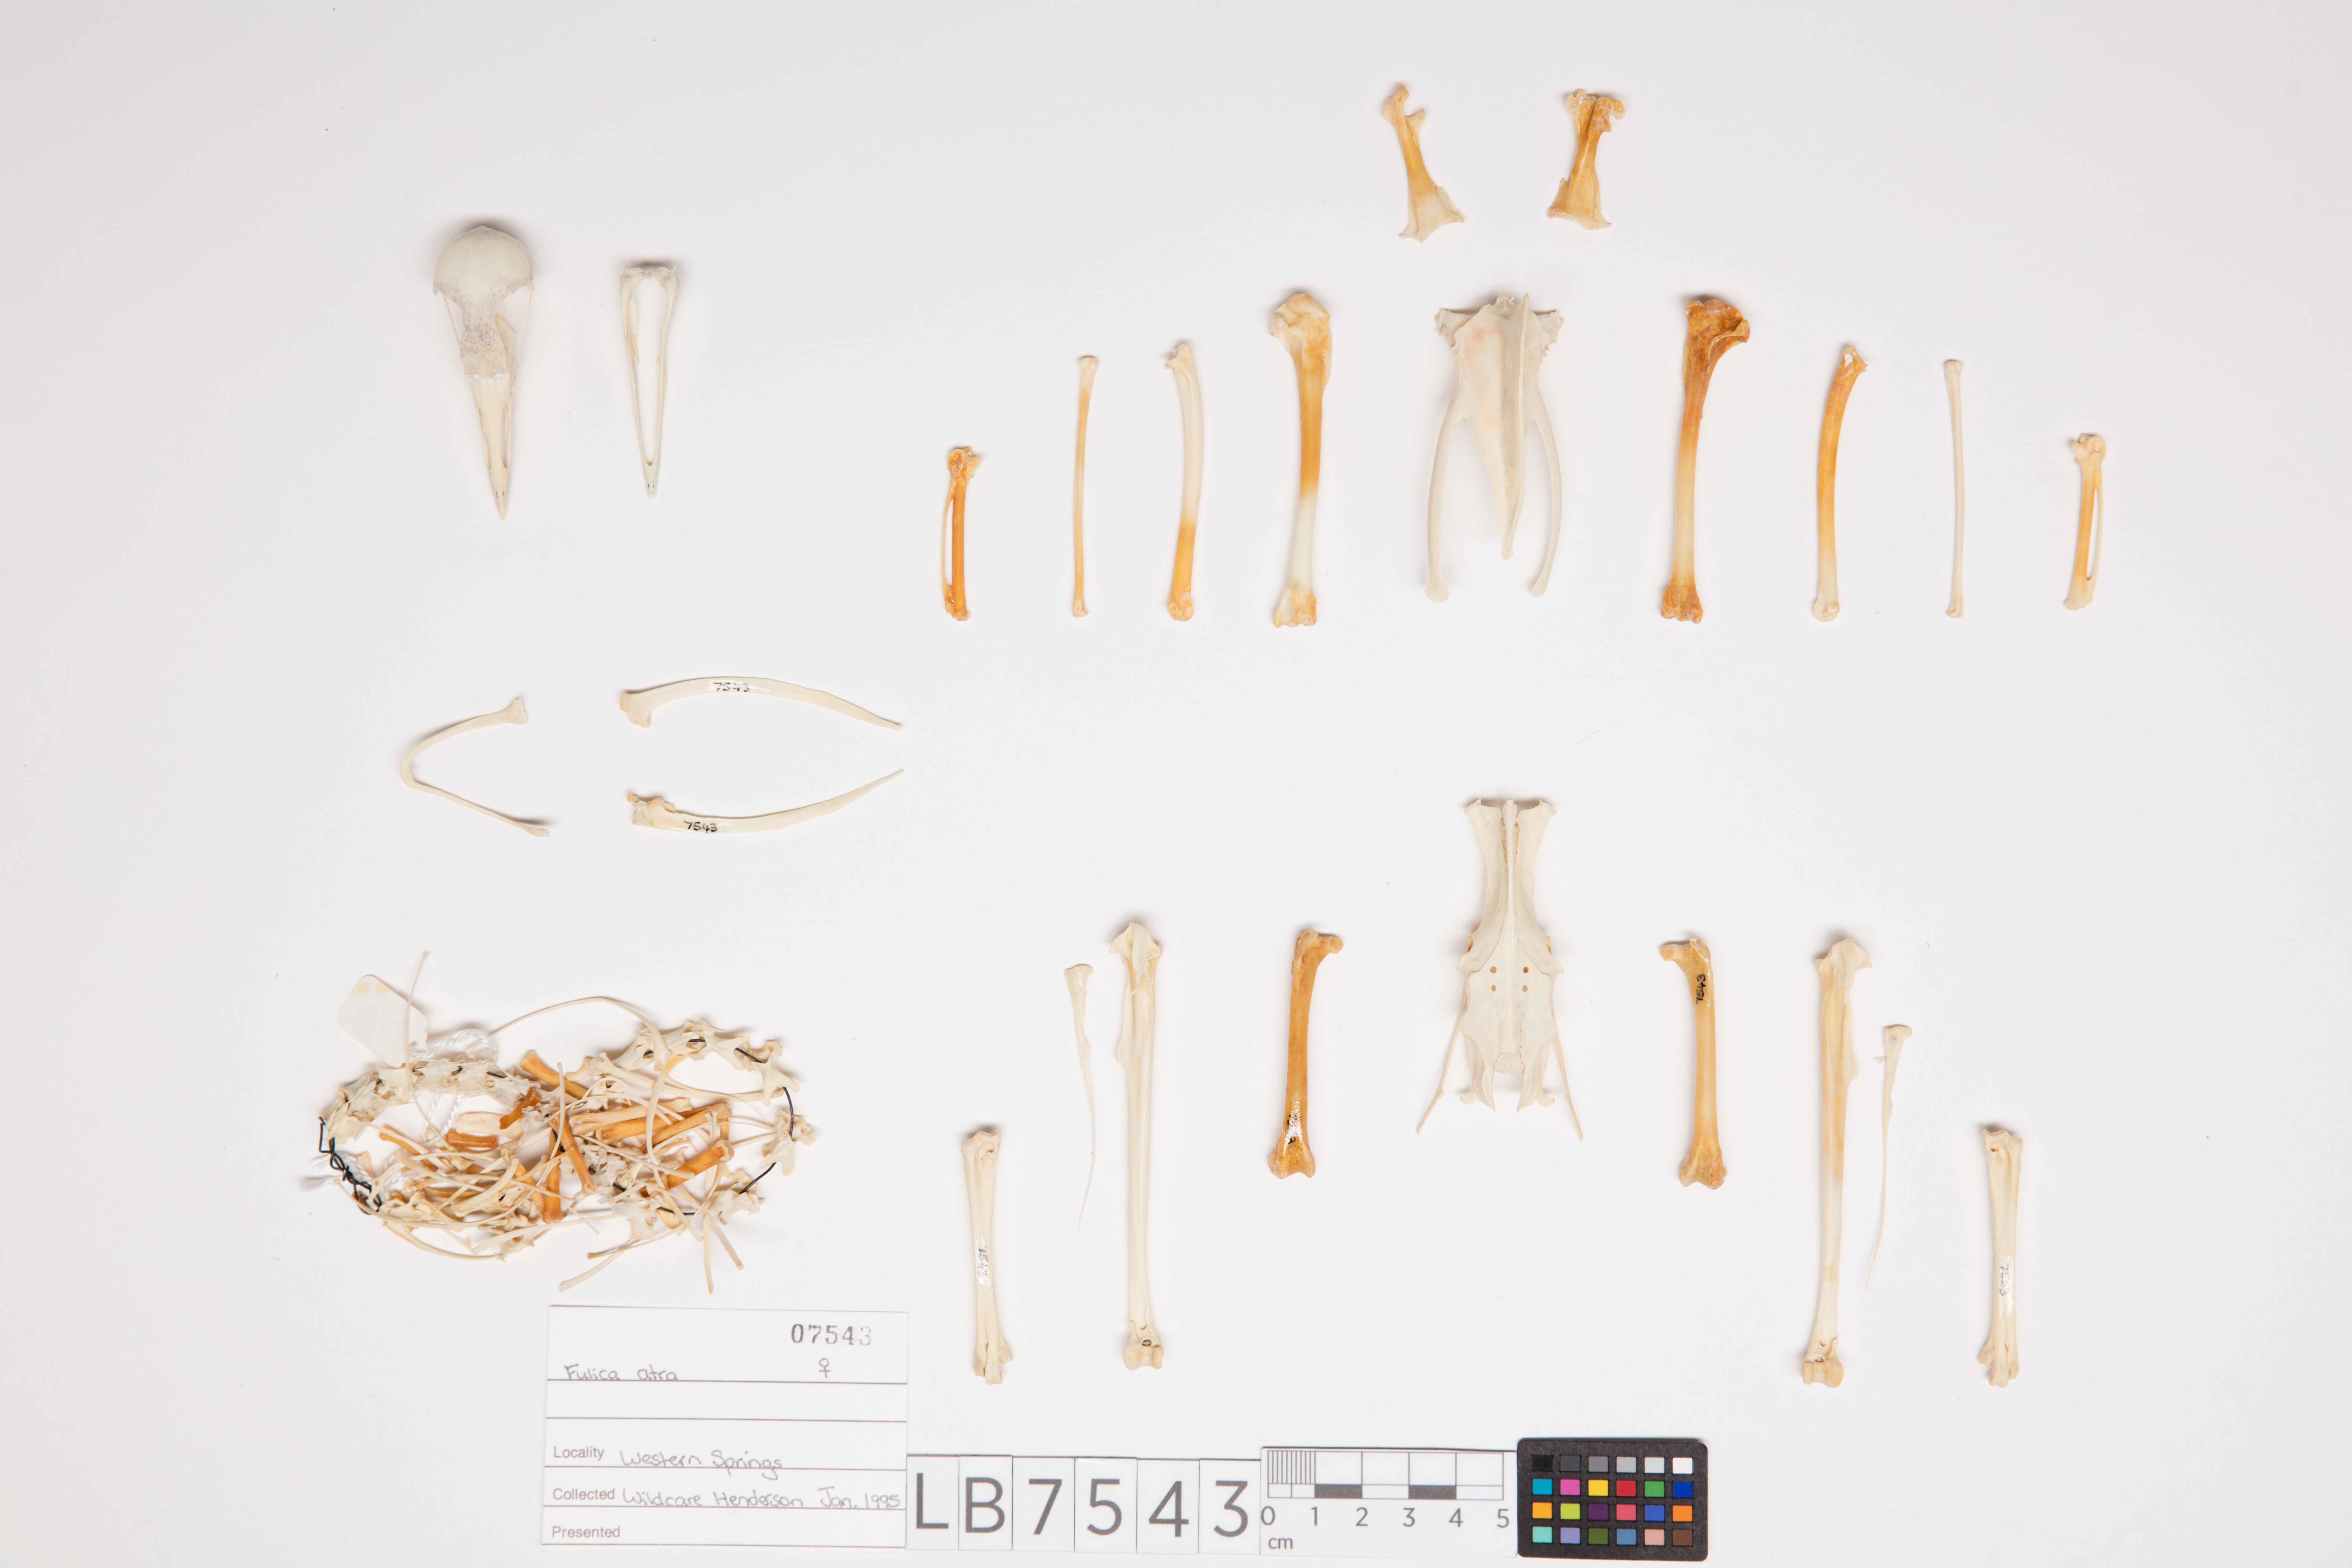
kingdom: Animalia
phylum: Chordata
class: Aves
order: Gruiformes
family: Rallidae
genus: Fulica
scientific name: Fulica atra
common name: Eurasian coot
